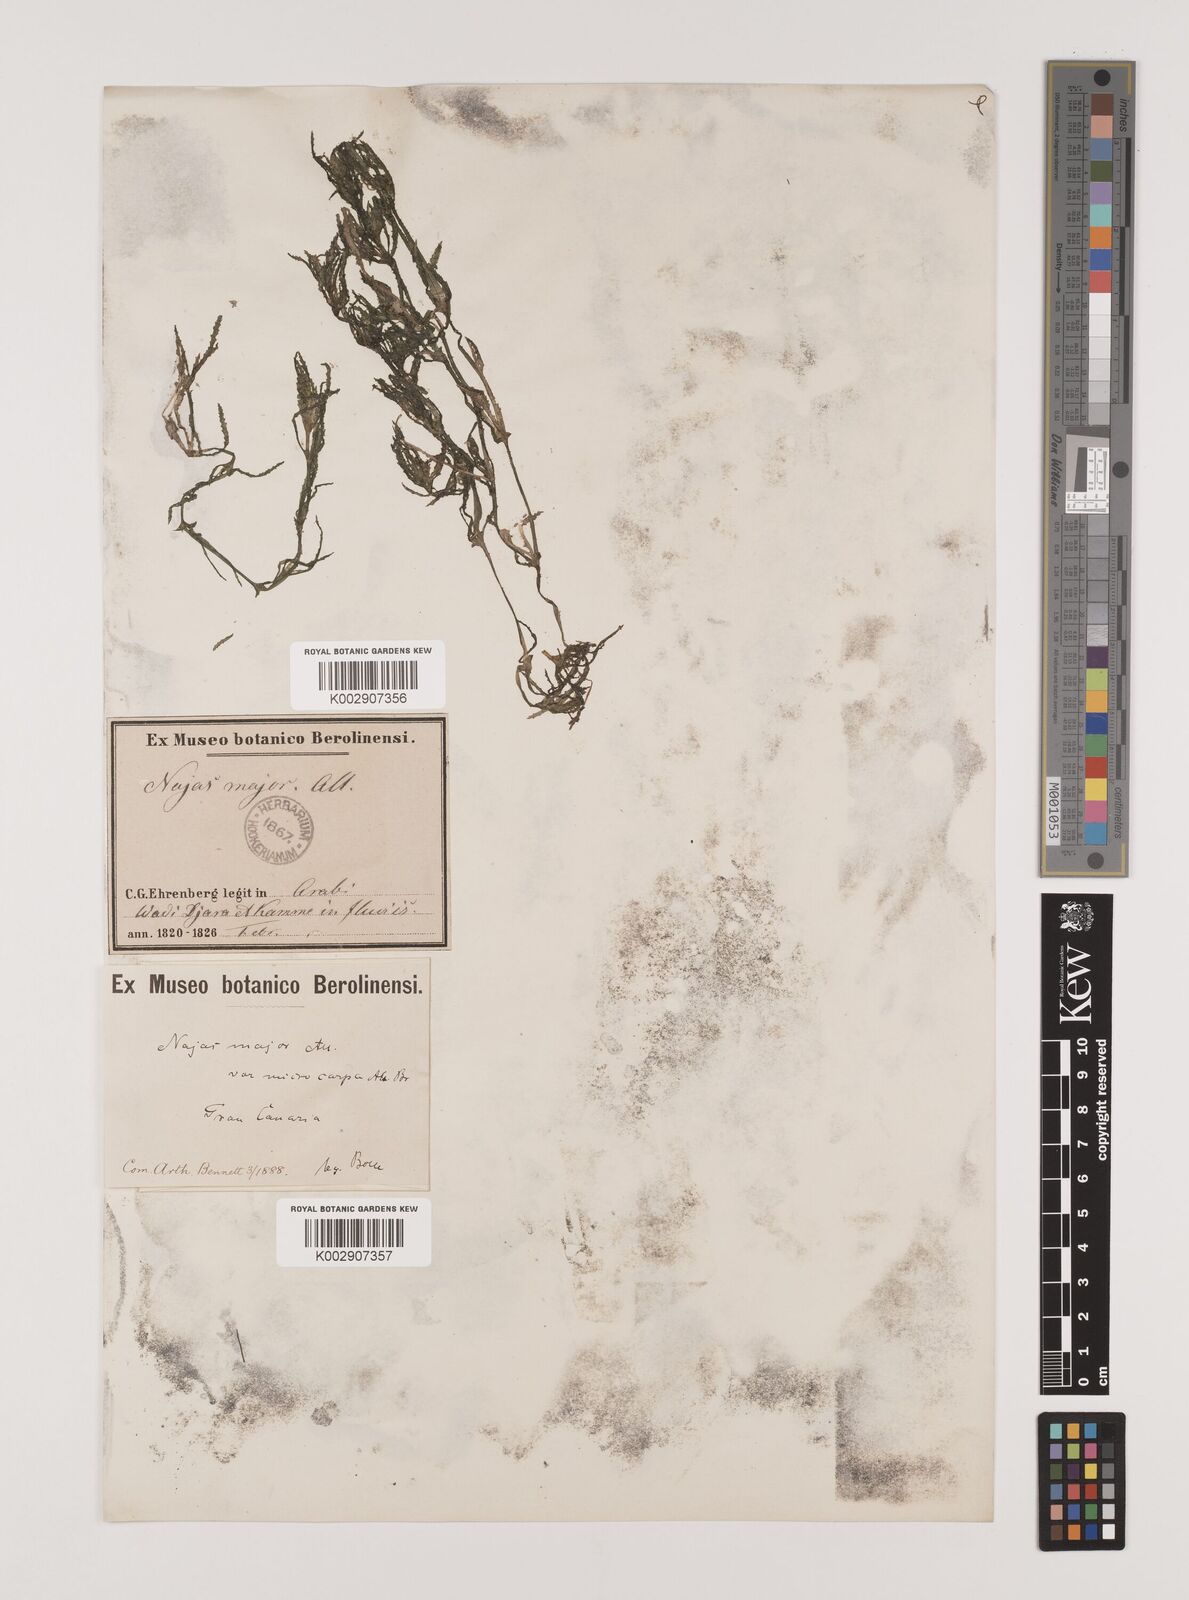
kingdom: Plantae
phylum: Tracheophyta
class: Liliopsida
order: Alismatales
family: Hydrocharitaceae
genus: Najas
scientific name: Najas marina
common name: Holly-leaved naiad
